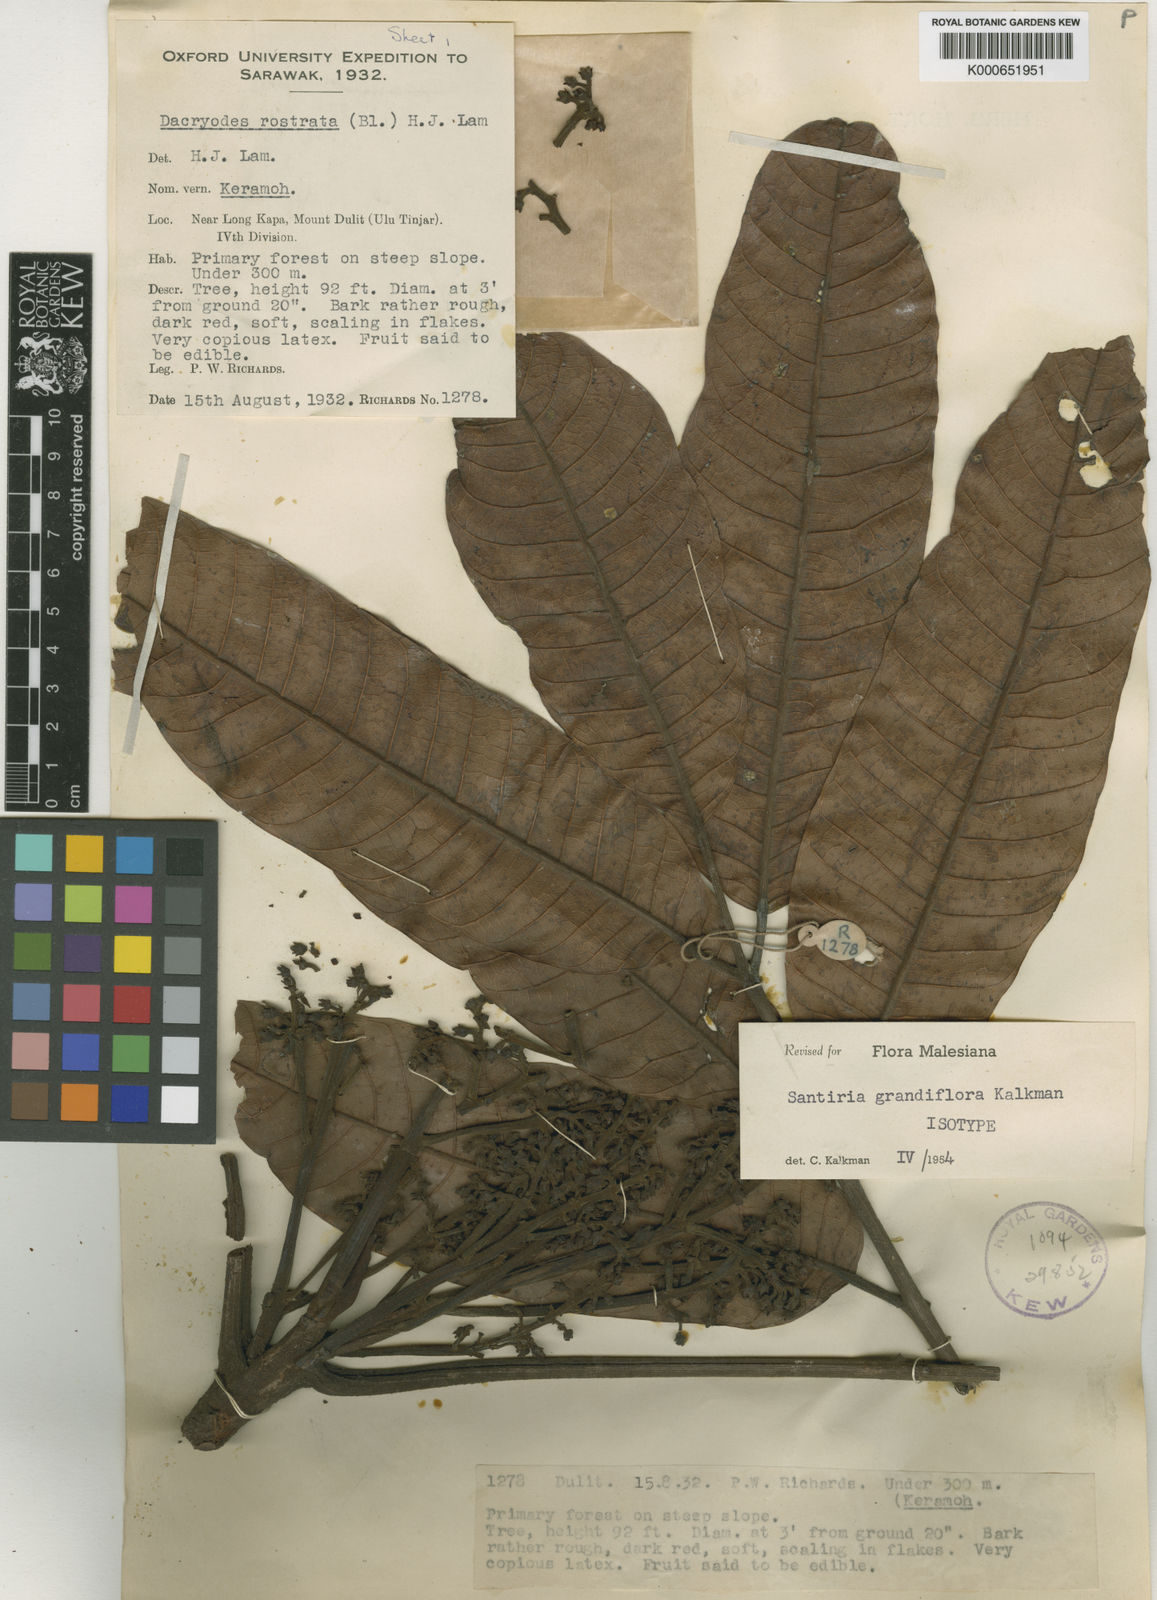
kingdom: Plantae
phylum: Tracheophyta
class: Magnoliopsida
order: Sapindales
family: Burseraceae
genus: Santiria
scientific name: Santiria grandiflora
